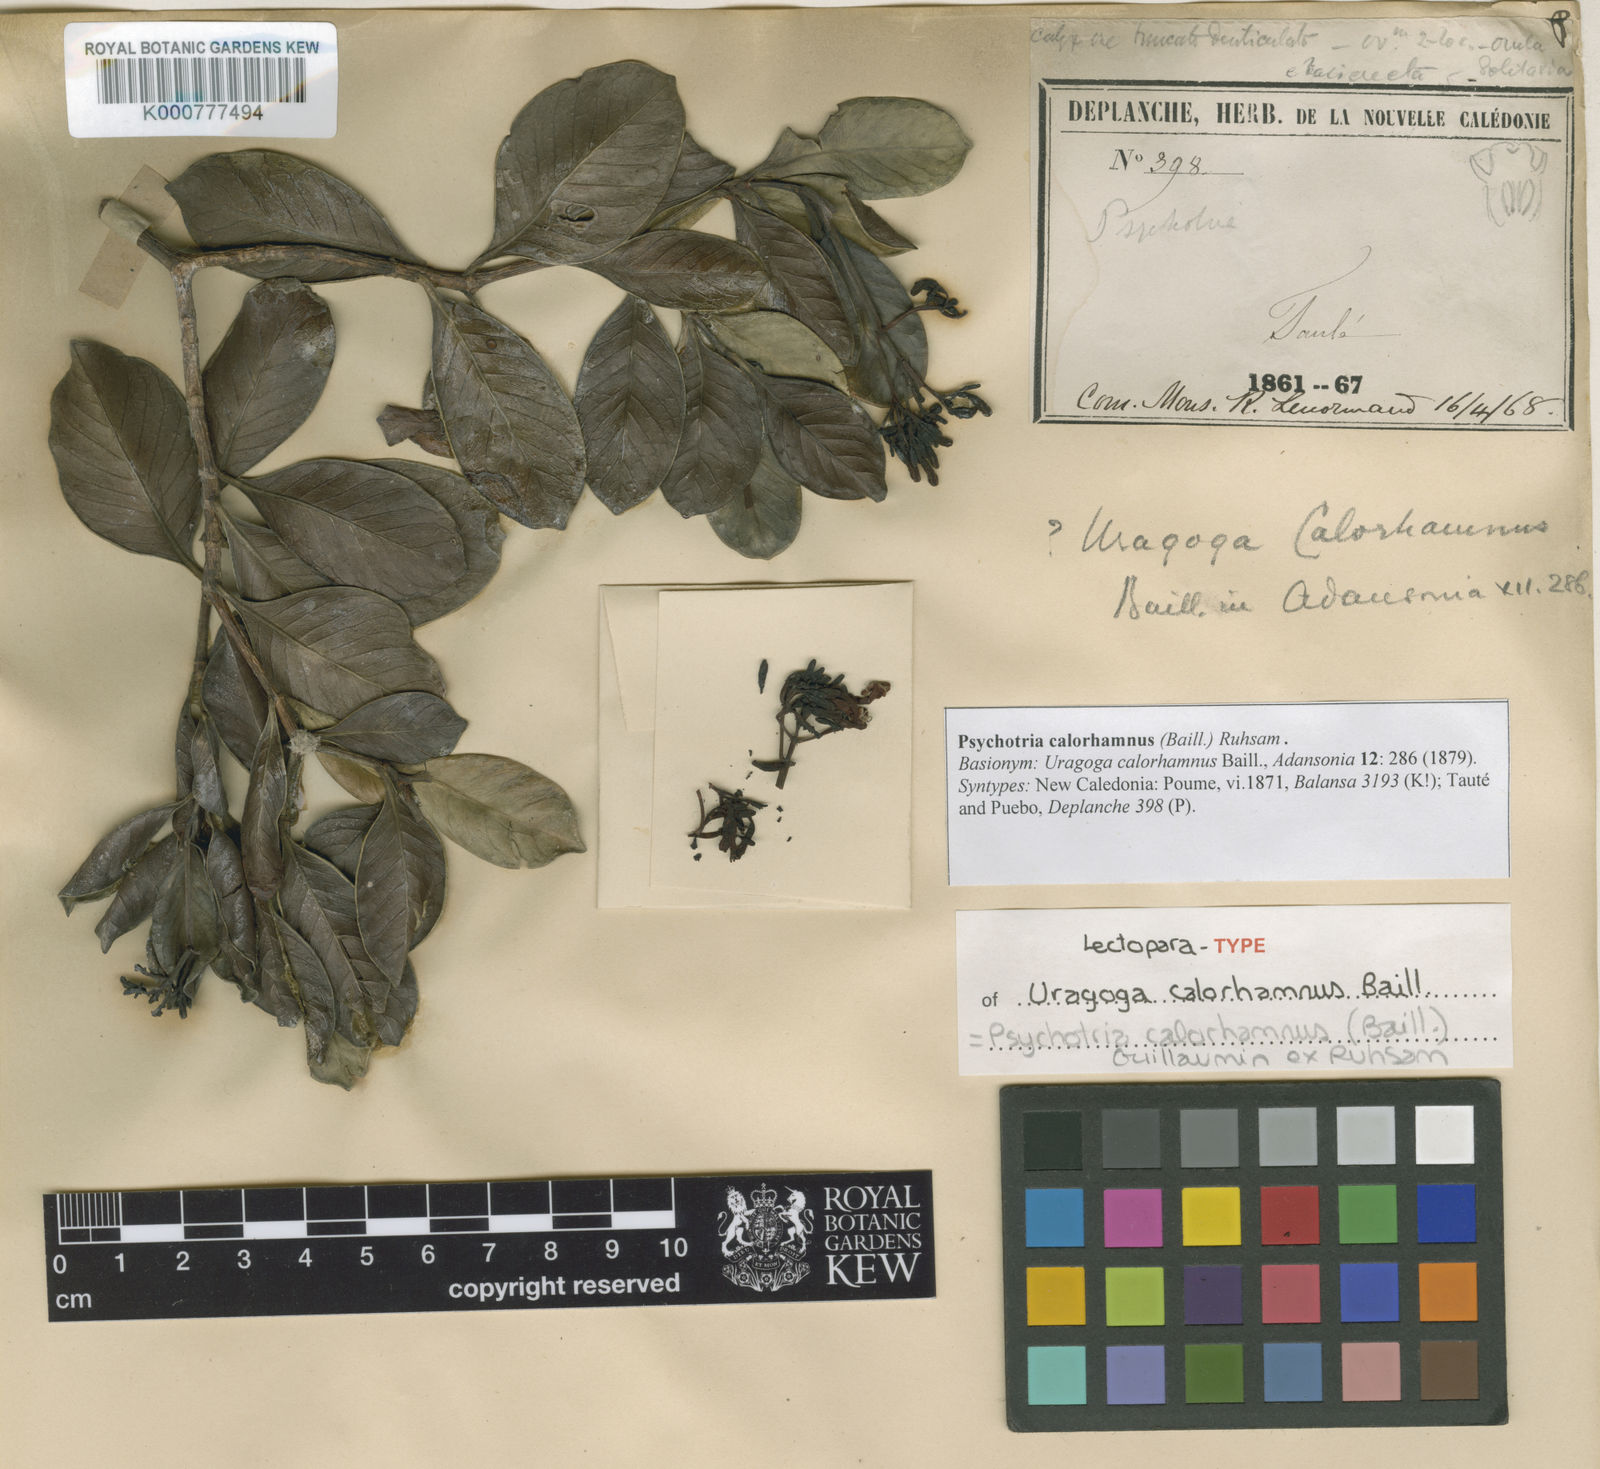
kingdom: Plantae
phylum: Tracheophyta
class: Magnoliopsida
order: Gentianales
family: Rubiaceae
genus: Psychotria
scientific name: Psychotria
